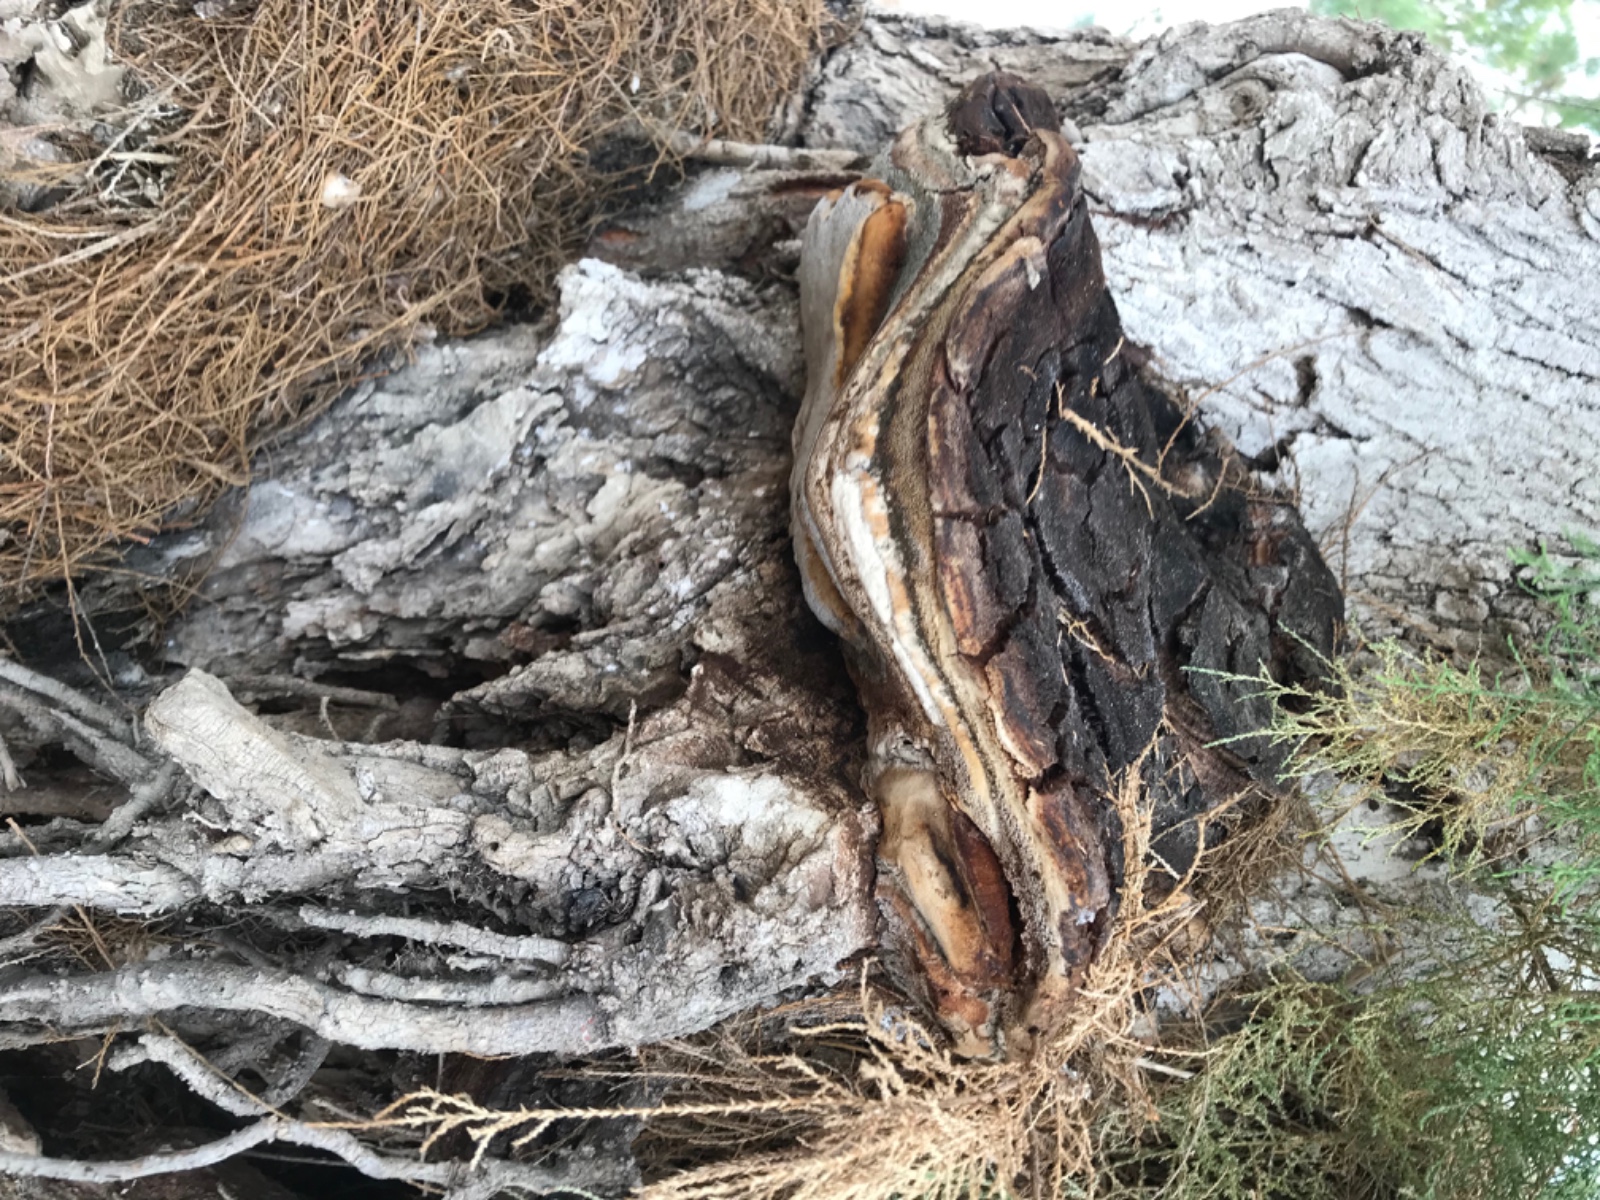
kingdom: Fungi
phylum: Basidiomycota
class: Agaricomycetes
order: Hymenochaetales
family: Hymenochaetaceae
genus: Inocutis
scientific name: Inocutis tamaricis
